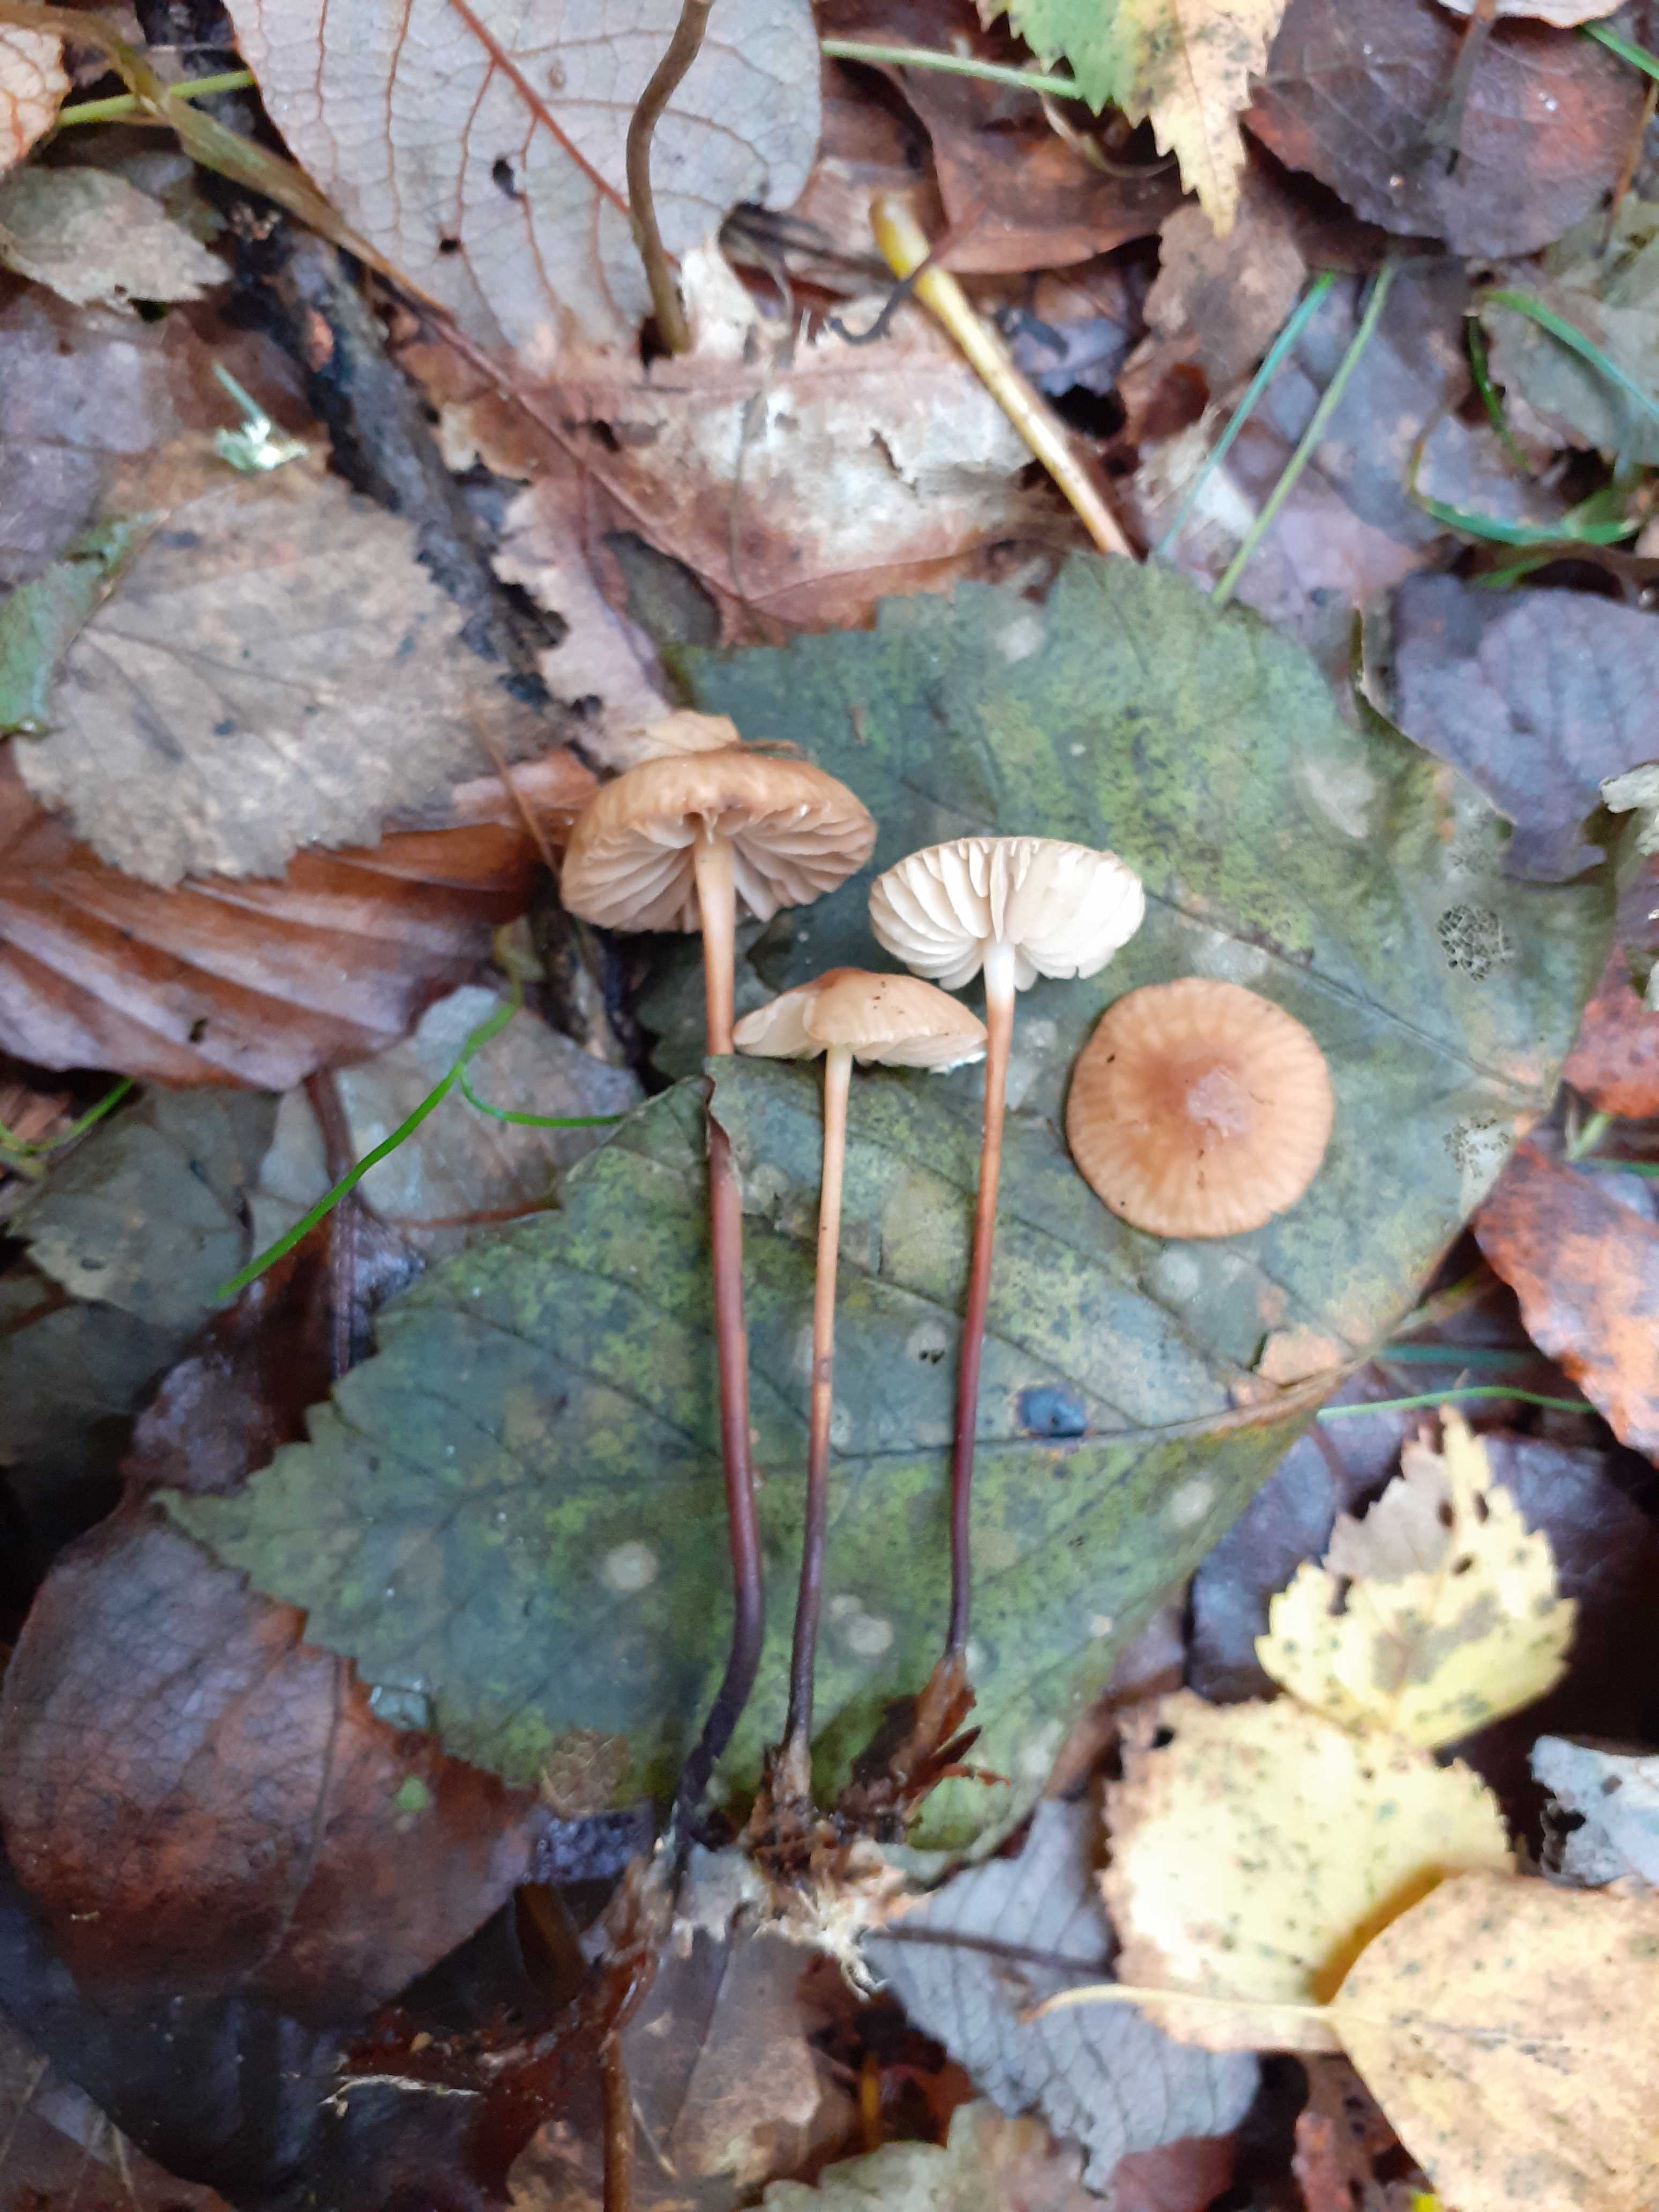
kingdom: Fungi
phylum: Basidiomycota
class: Agaricomycetes
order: Agaricales
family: Marasmiaceae
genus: Marasmius
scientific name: Marasmius torquescens
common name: filtfodet bruskhat
